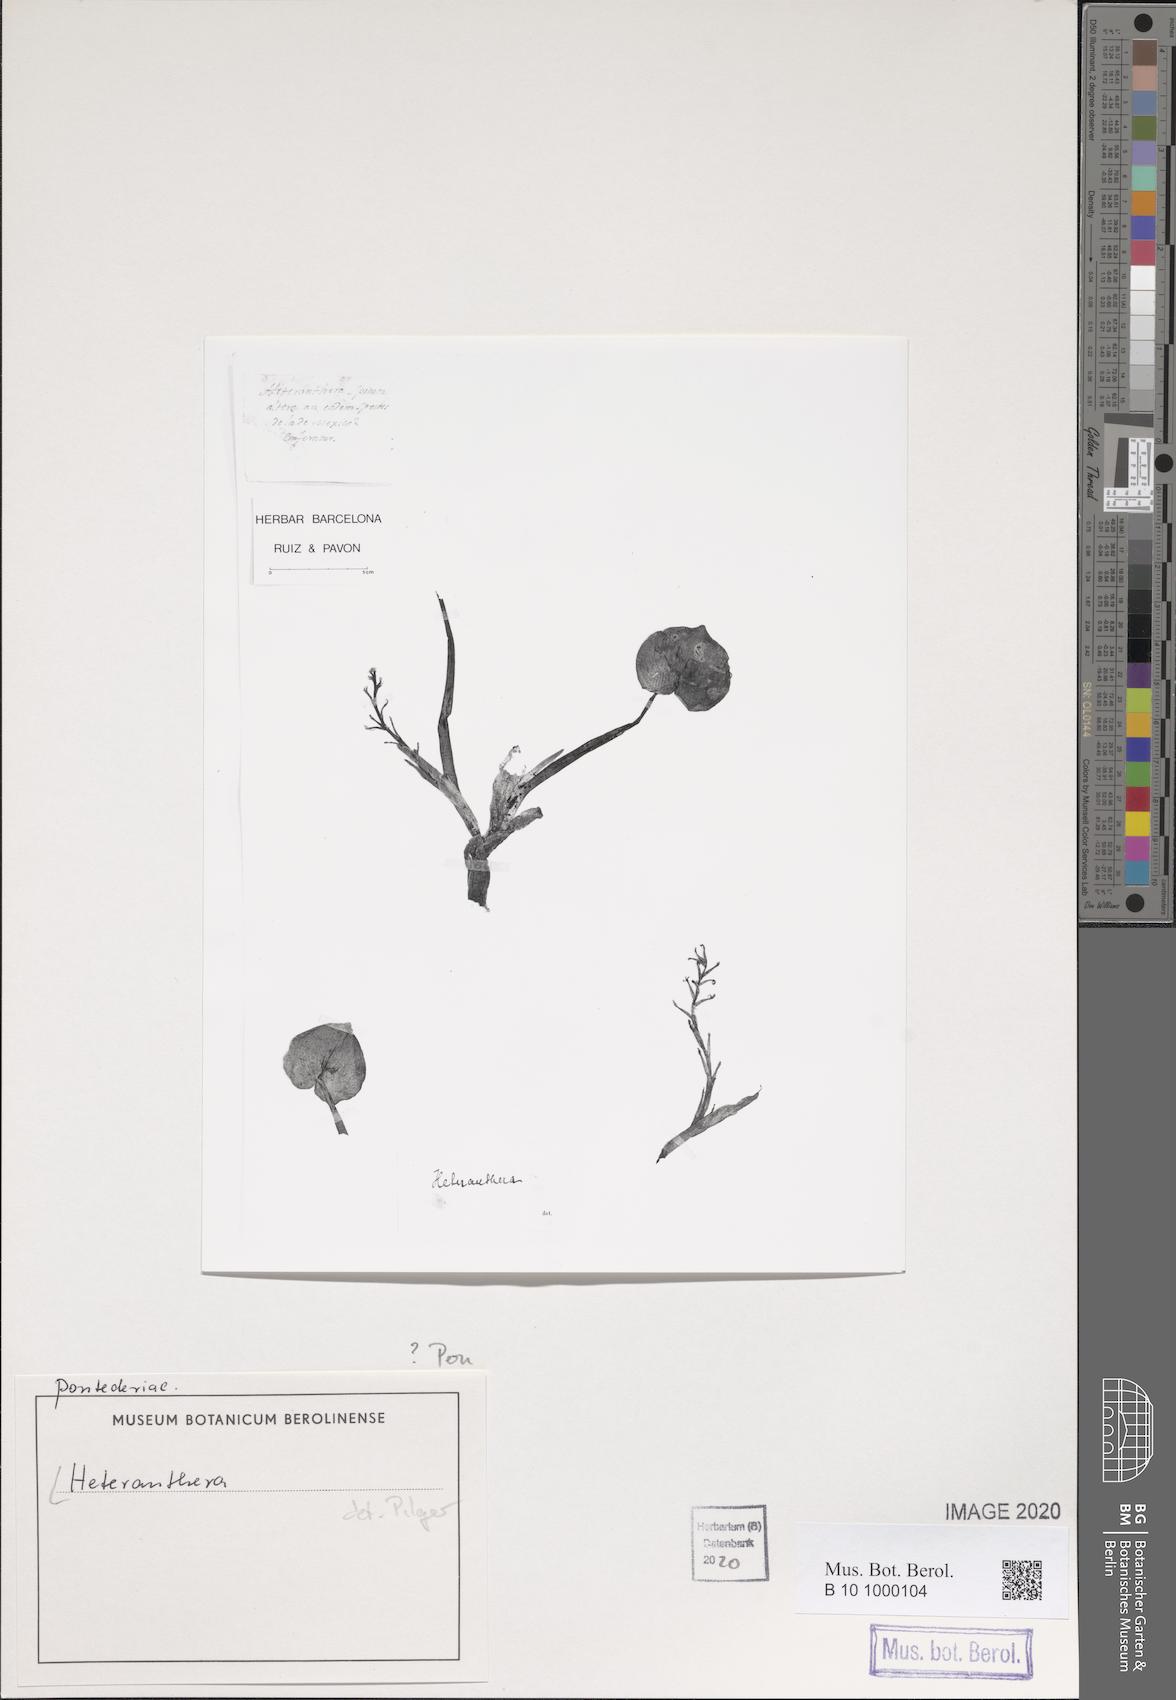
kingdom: Plantae
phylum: Tracheophyta
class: Liliopsida
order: Commelinales
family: Pontederiaceae
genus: Heteranthera
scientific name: Heteranthera
